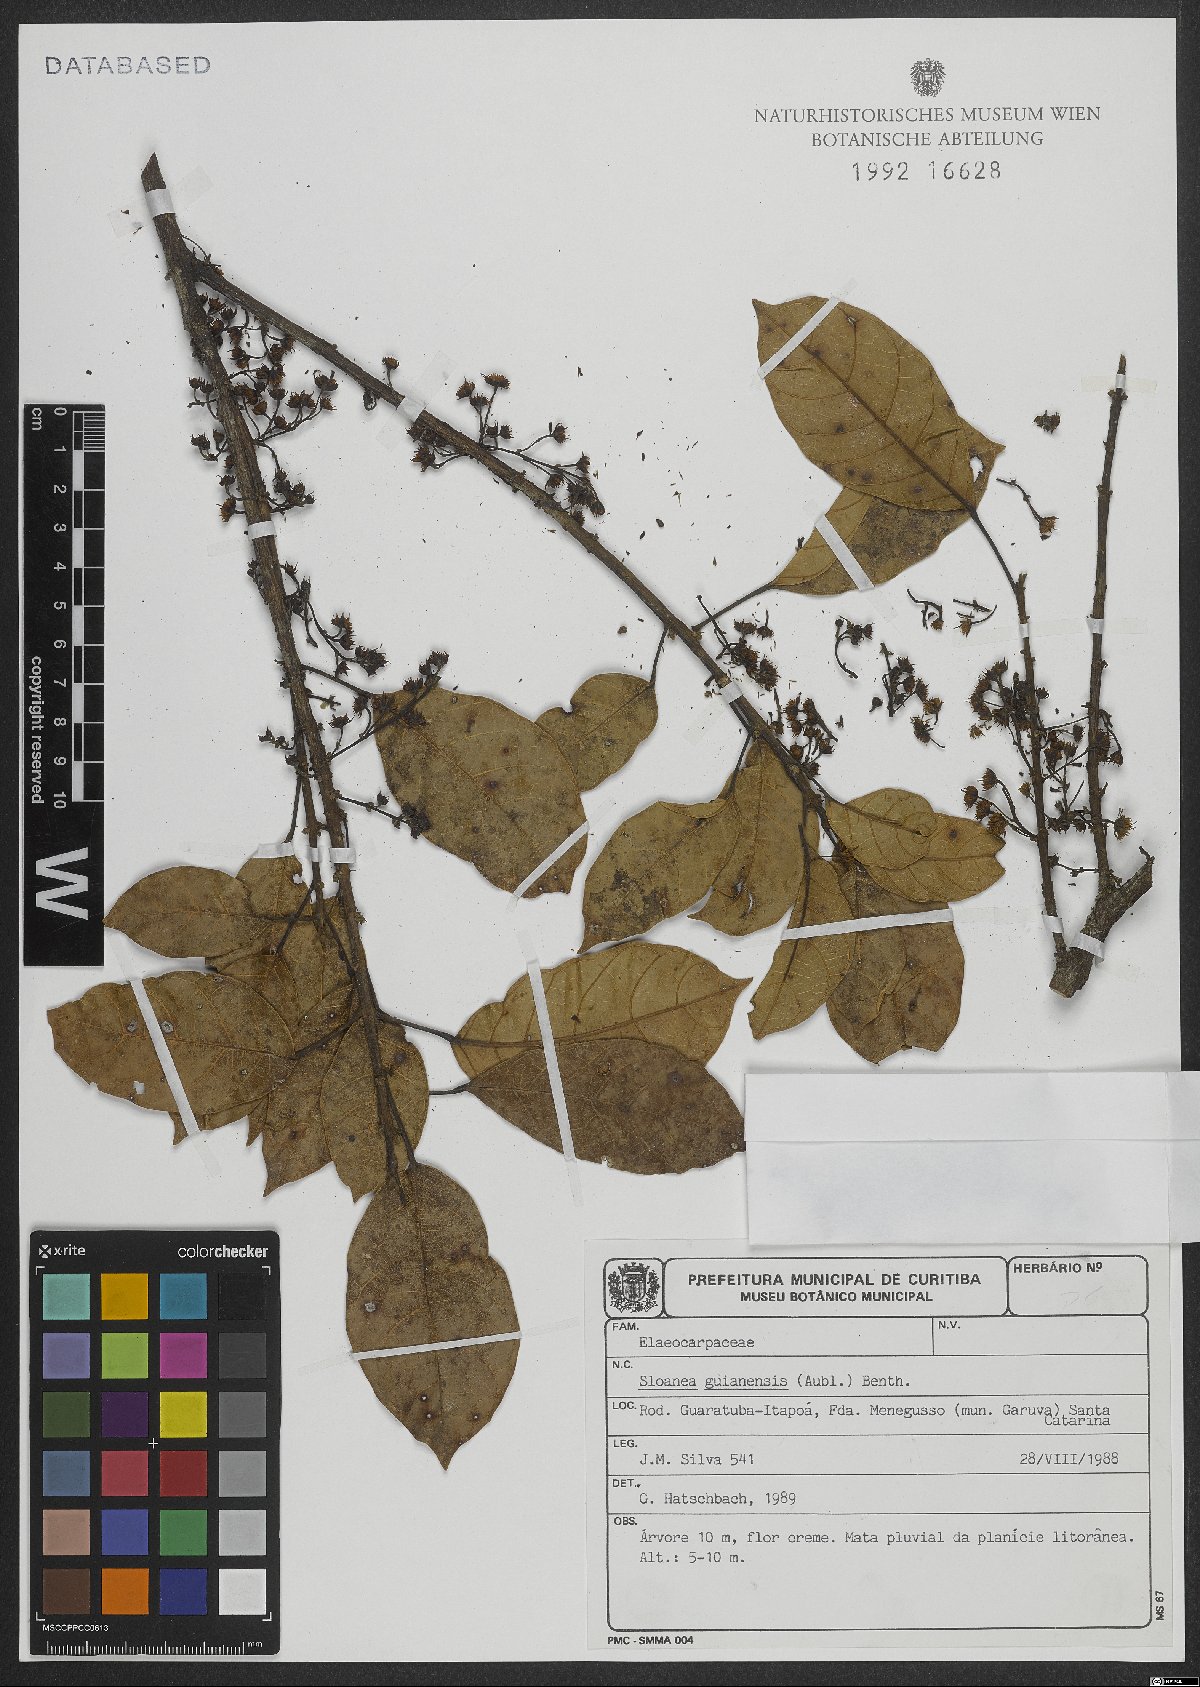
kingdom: Plantae
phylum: Tracheophyta
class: Magnoliopsida
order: Oxalidales
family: Elaeocarpaceae
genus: Sloanea
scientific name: Sloanea guianensis
